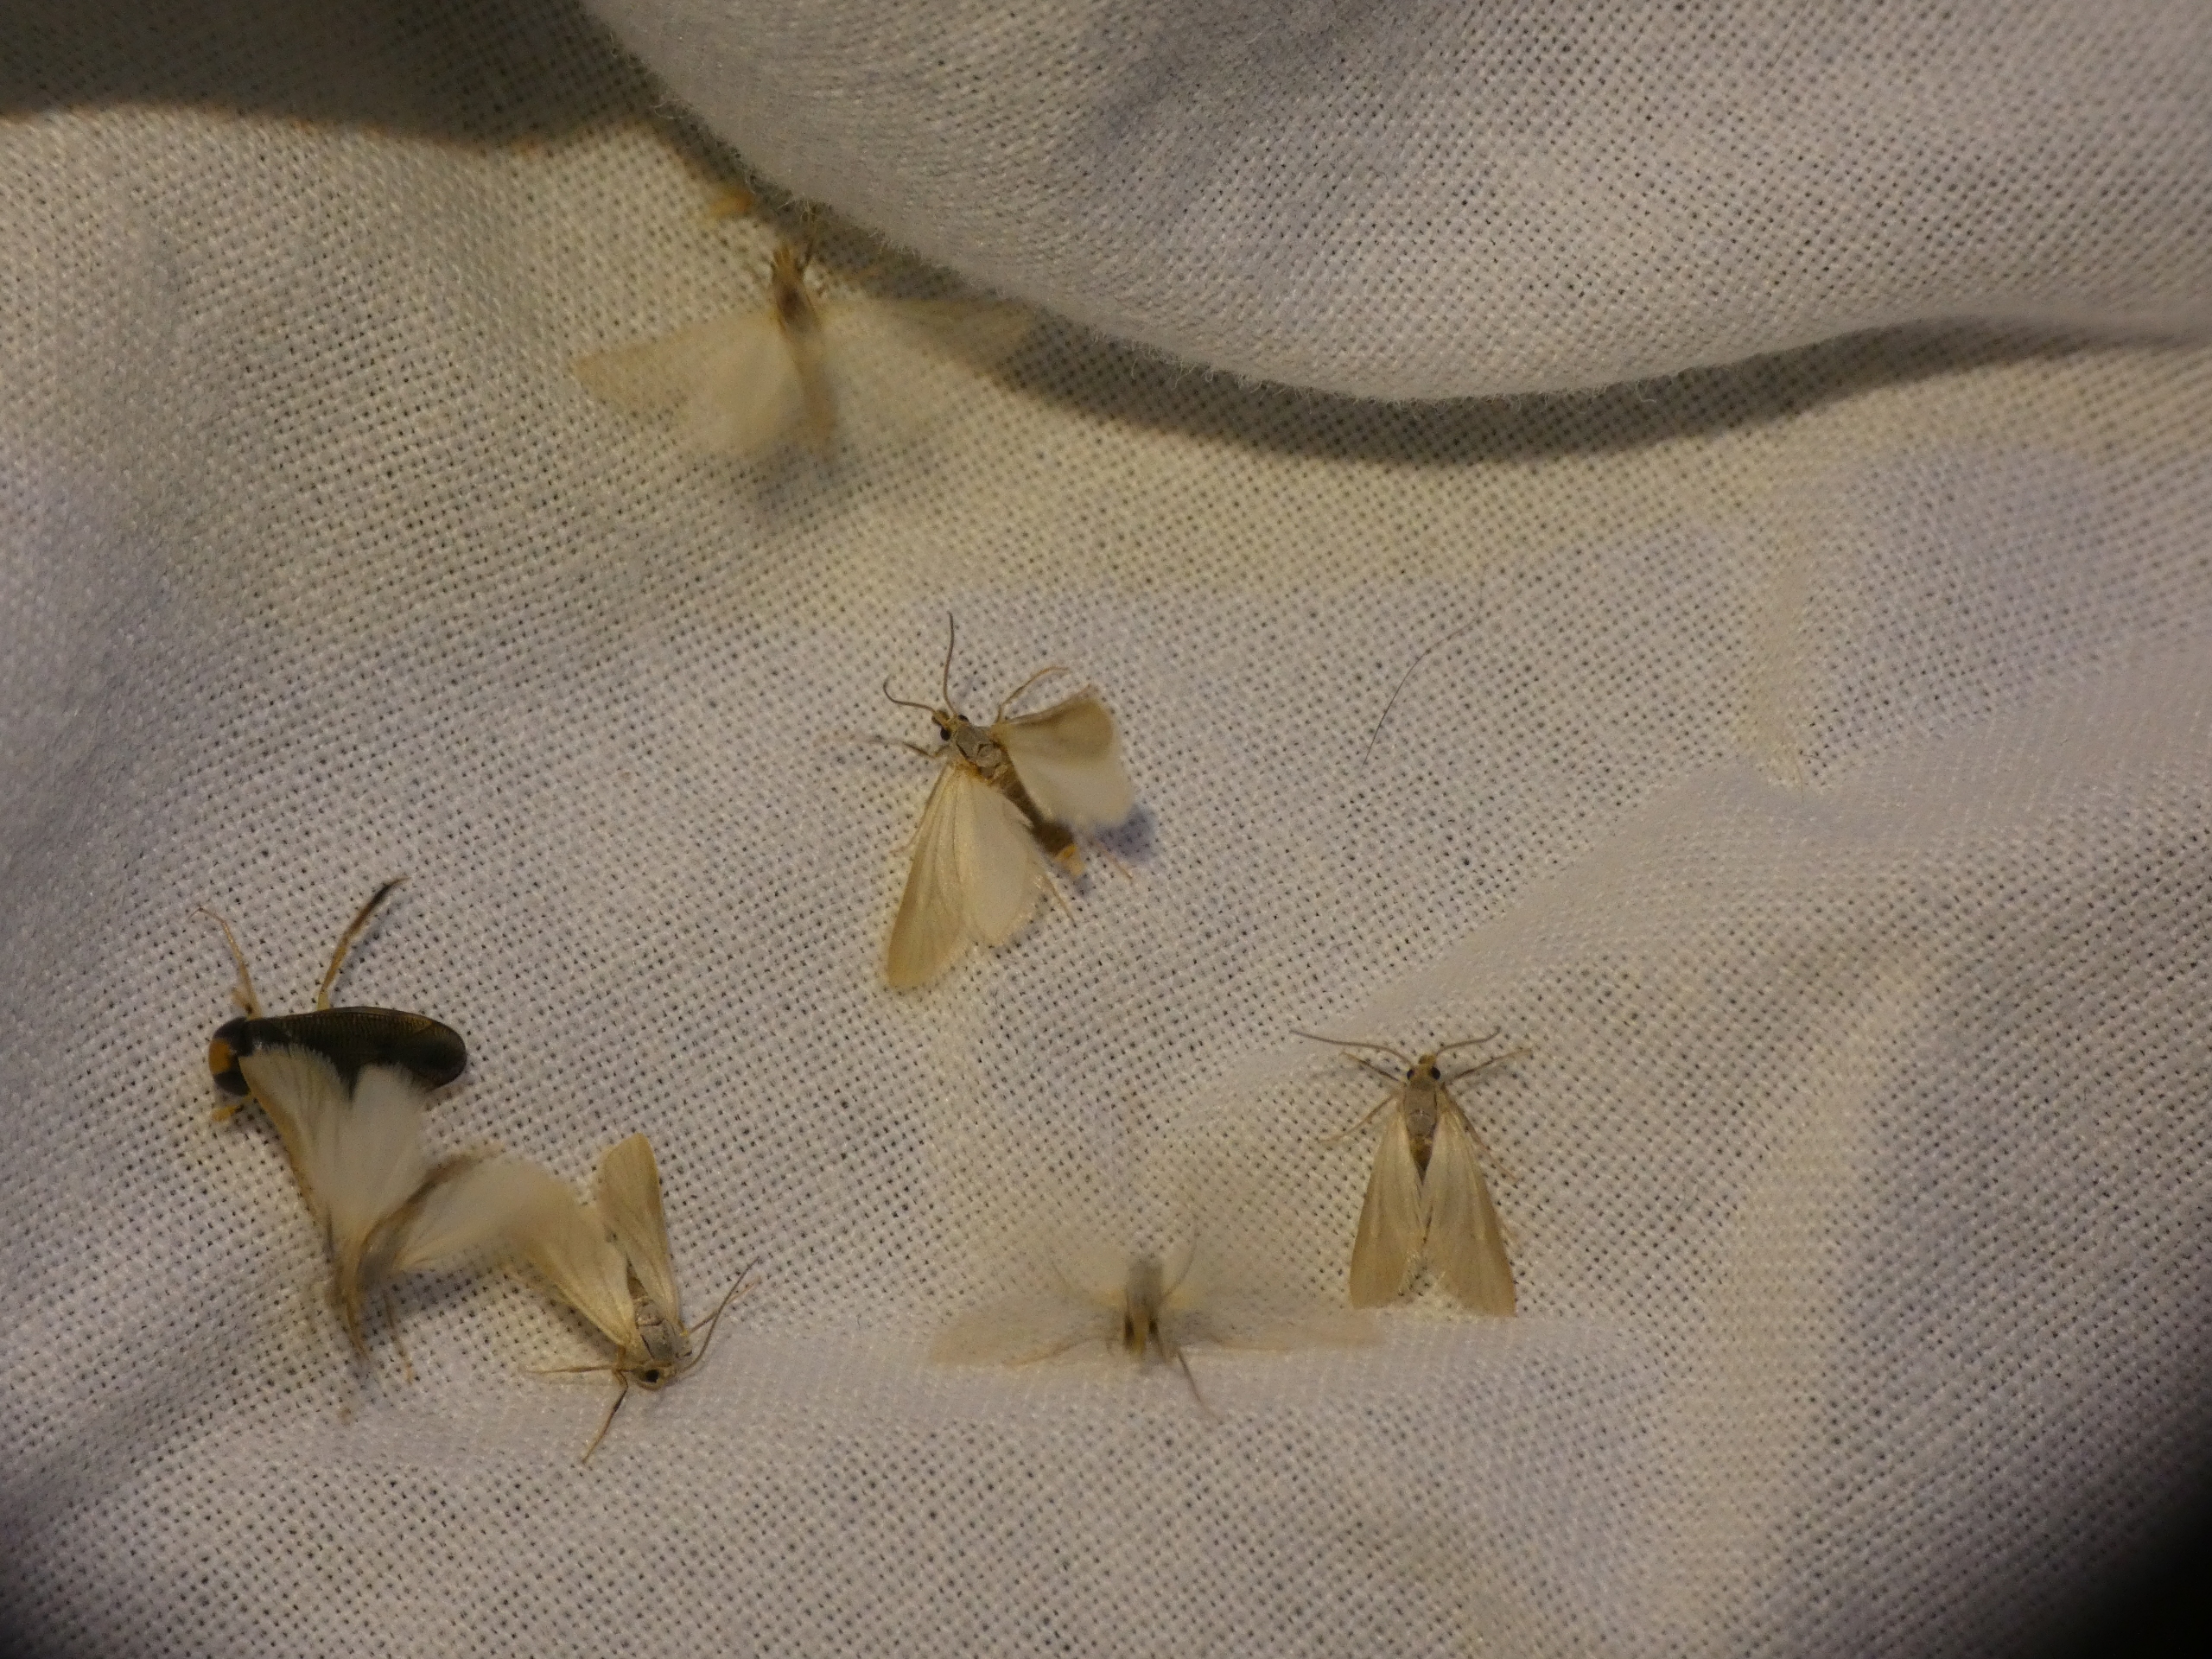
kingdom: Animalia
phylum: Arthropoda
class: Insecta
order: Lepidoptera
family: Crambidae
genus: Acentria
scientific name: Acentria ephemerella
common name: Vandmøl
